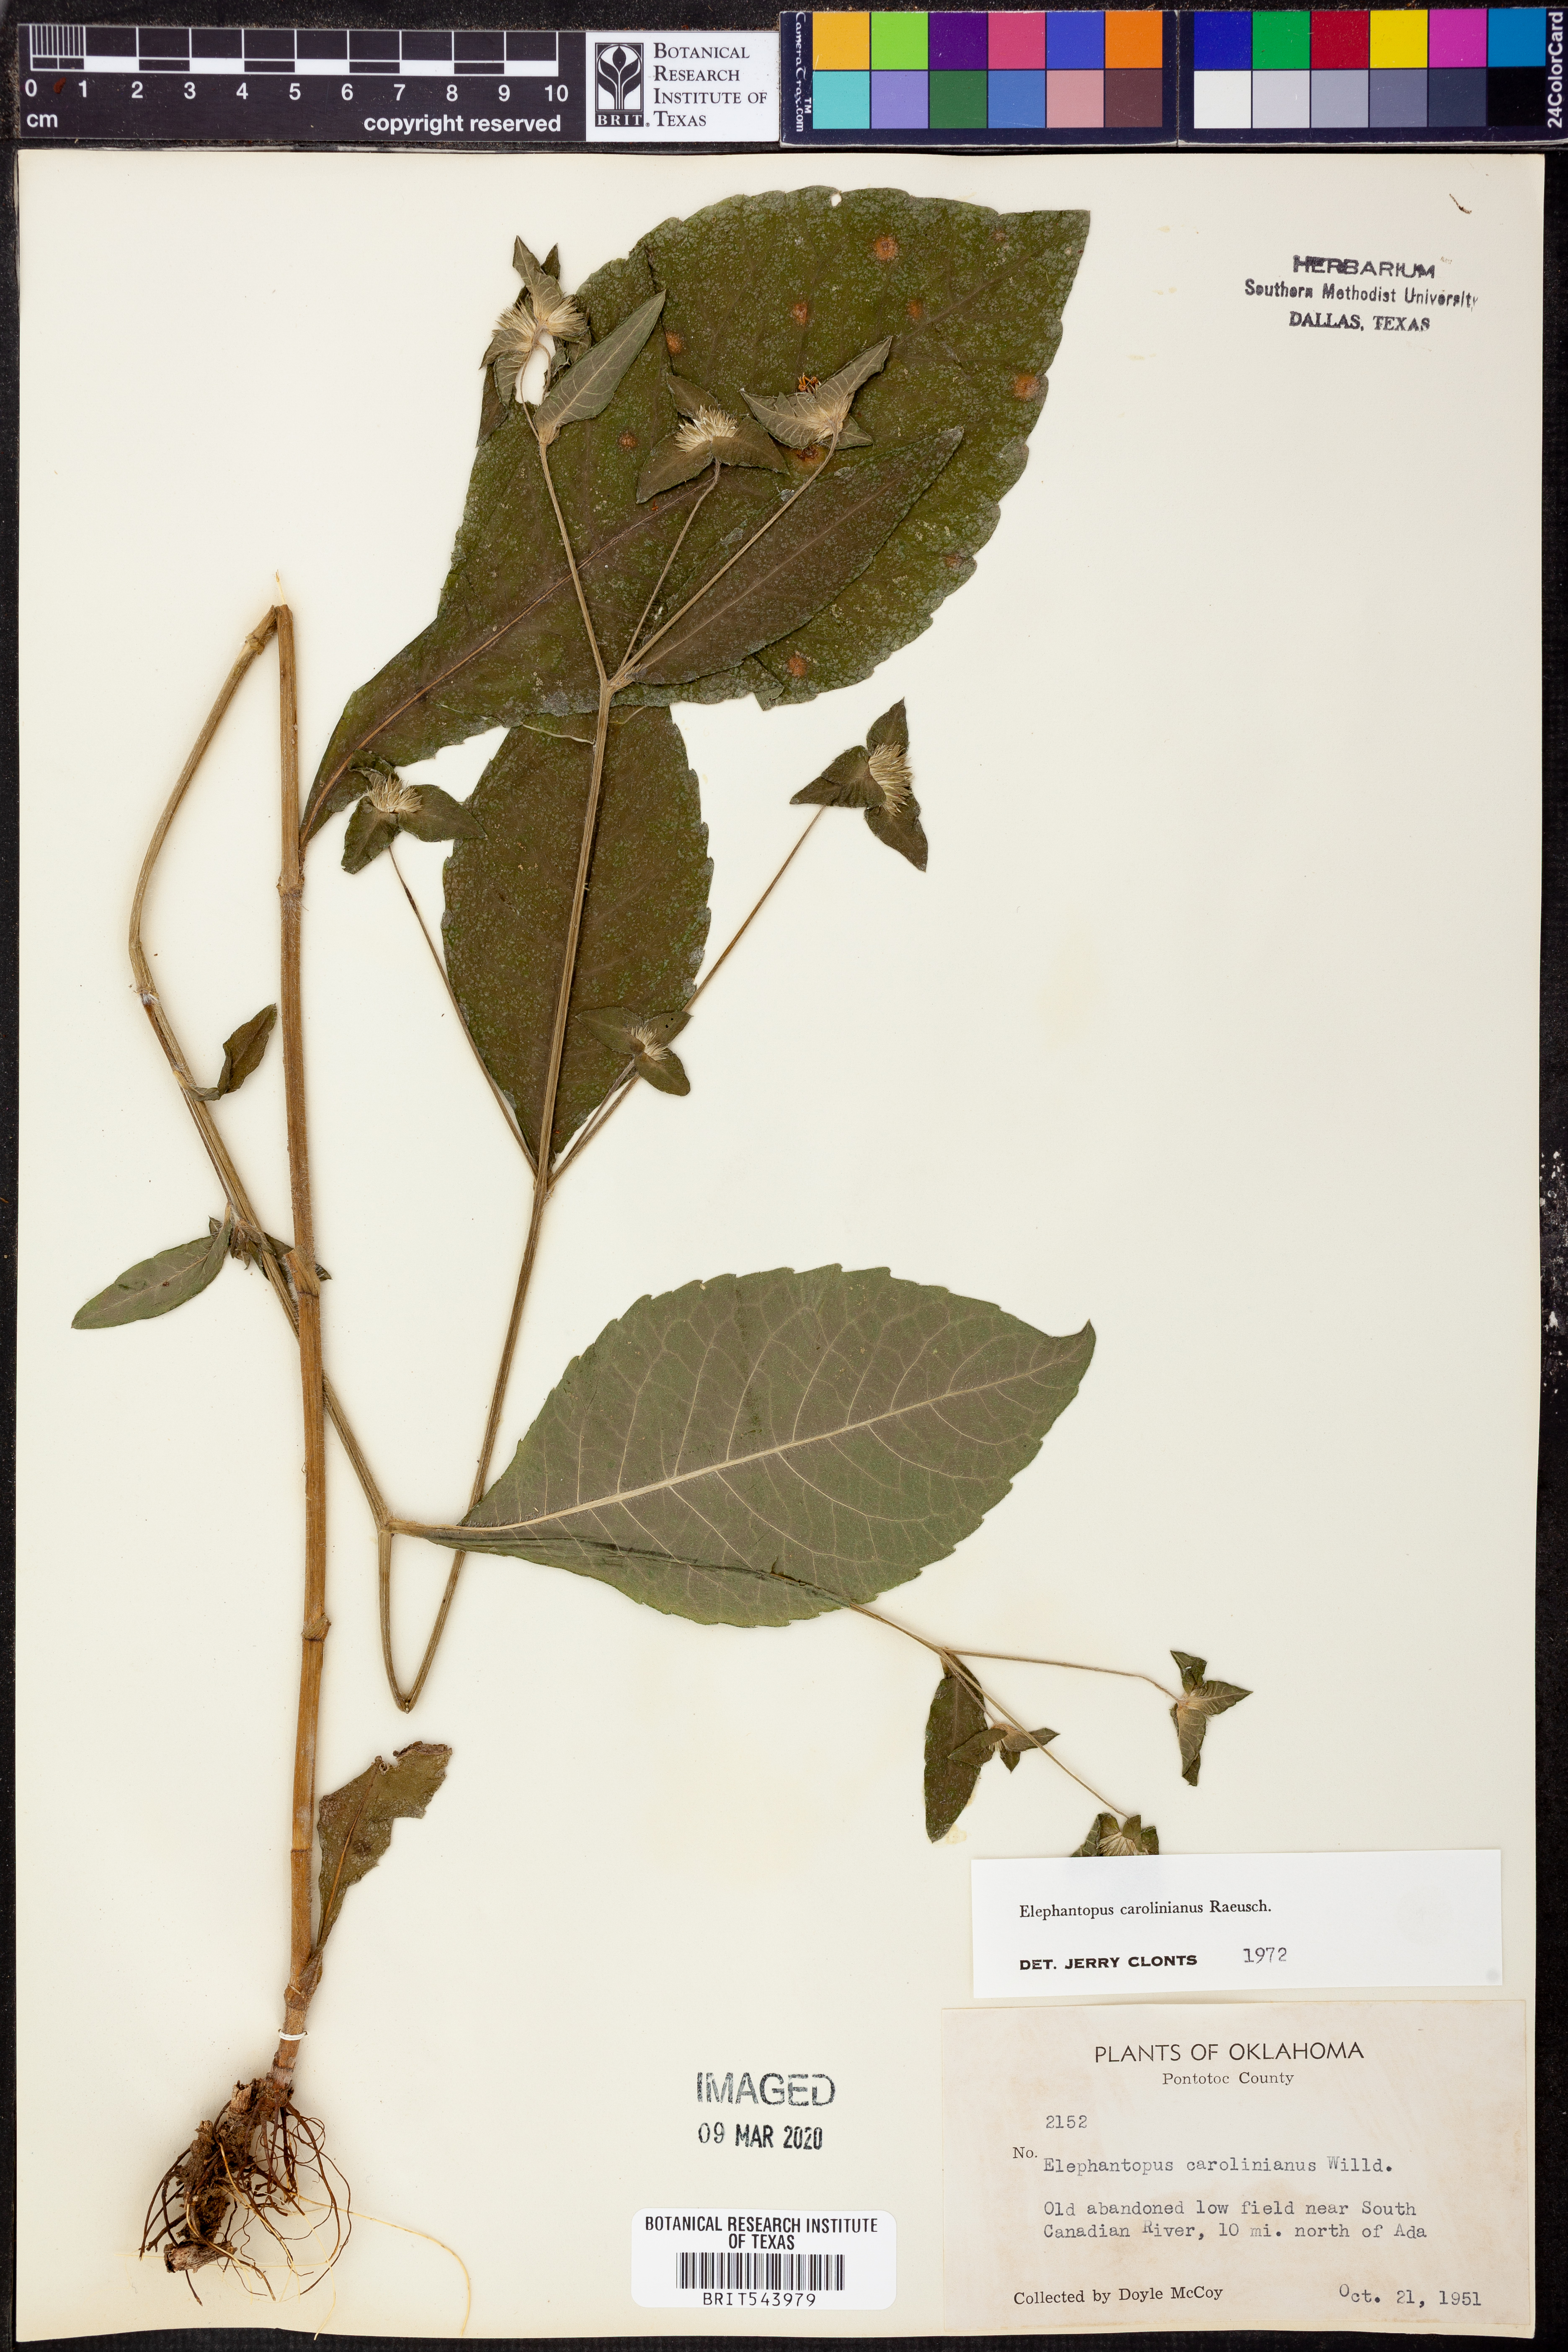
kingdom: Plantae
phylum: Tracheophyta
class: Magnoliopsida
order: Asterales
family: Asteraceae
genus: Elephantopus
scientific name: Elephantopus carolinianus
